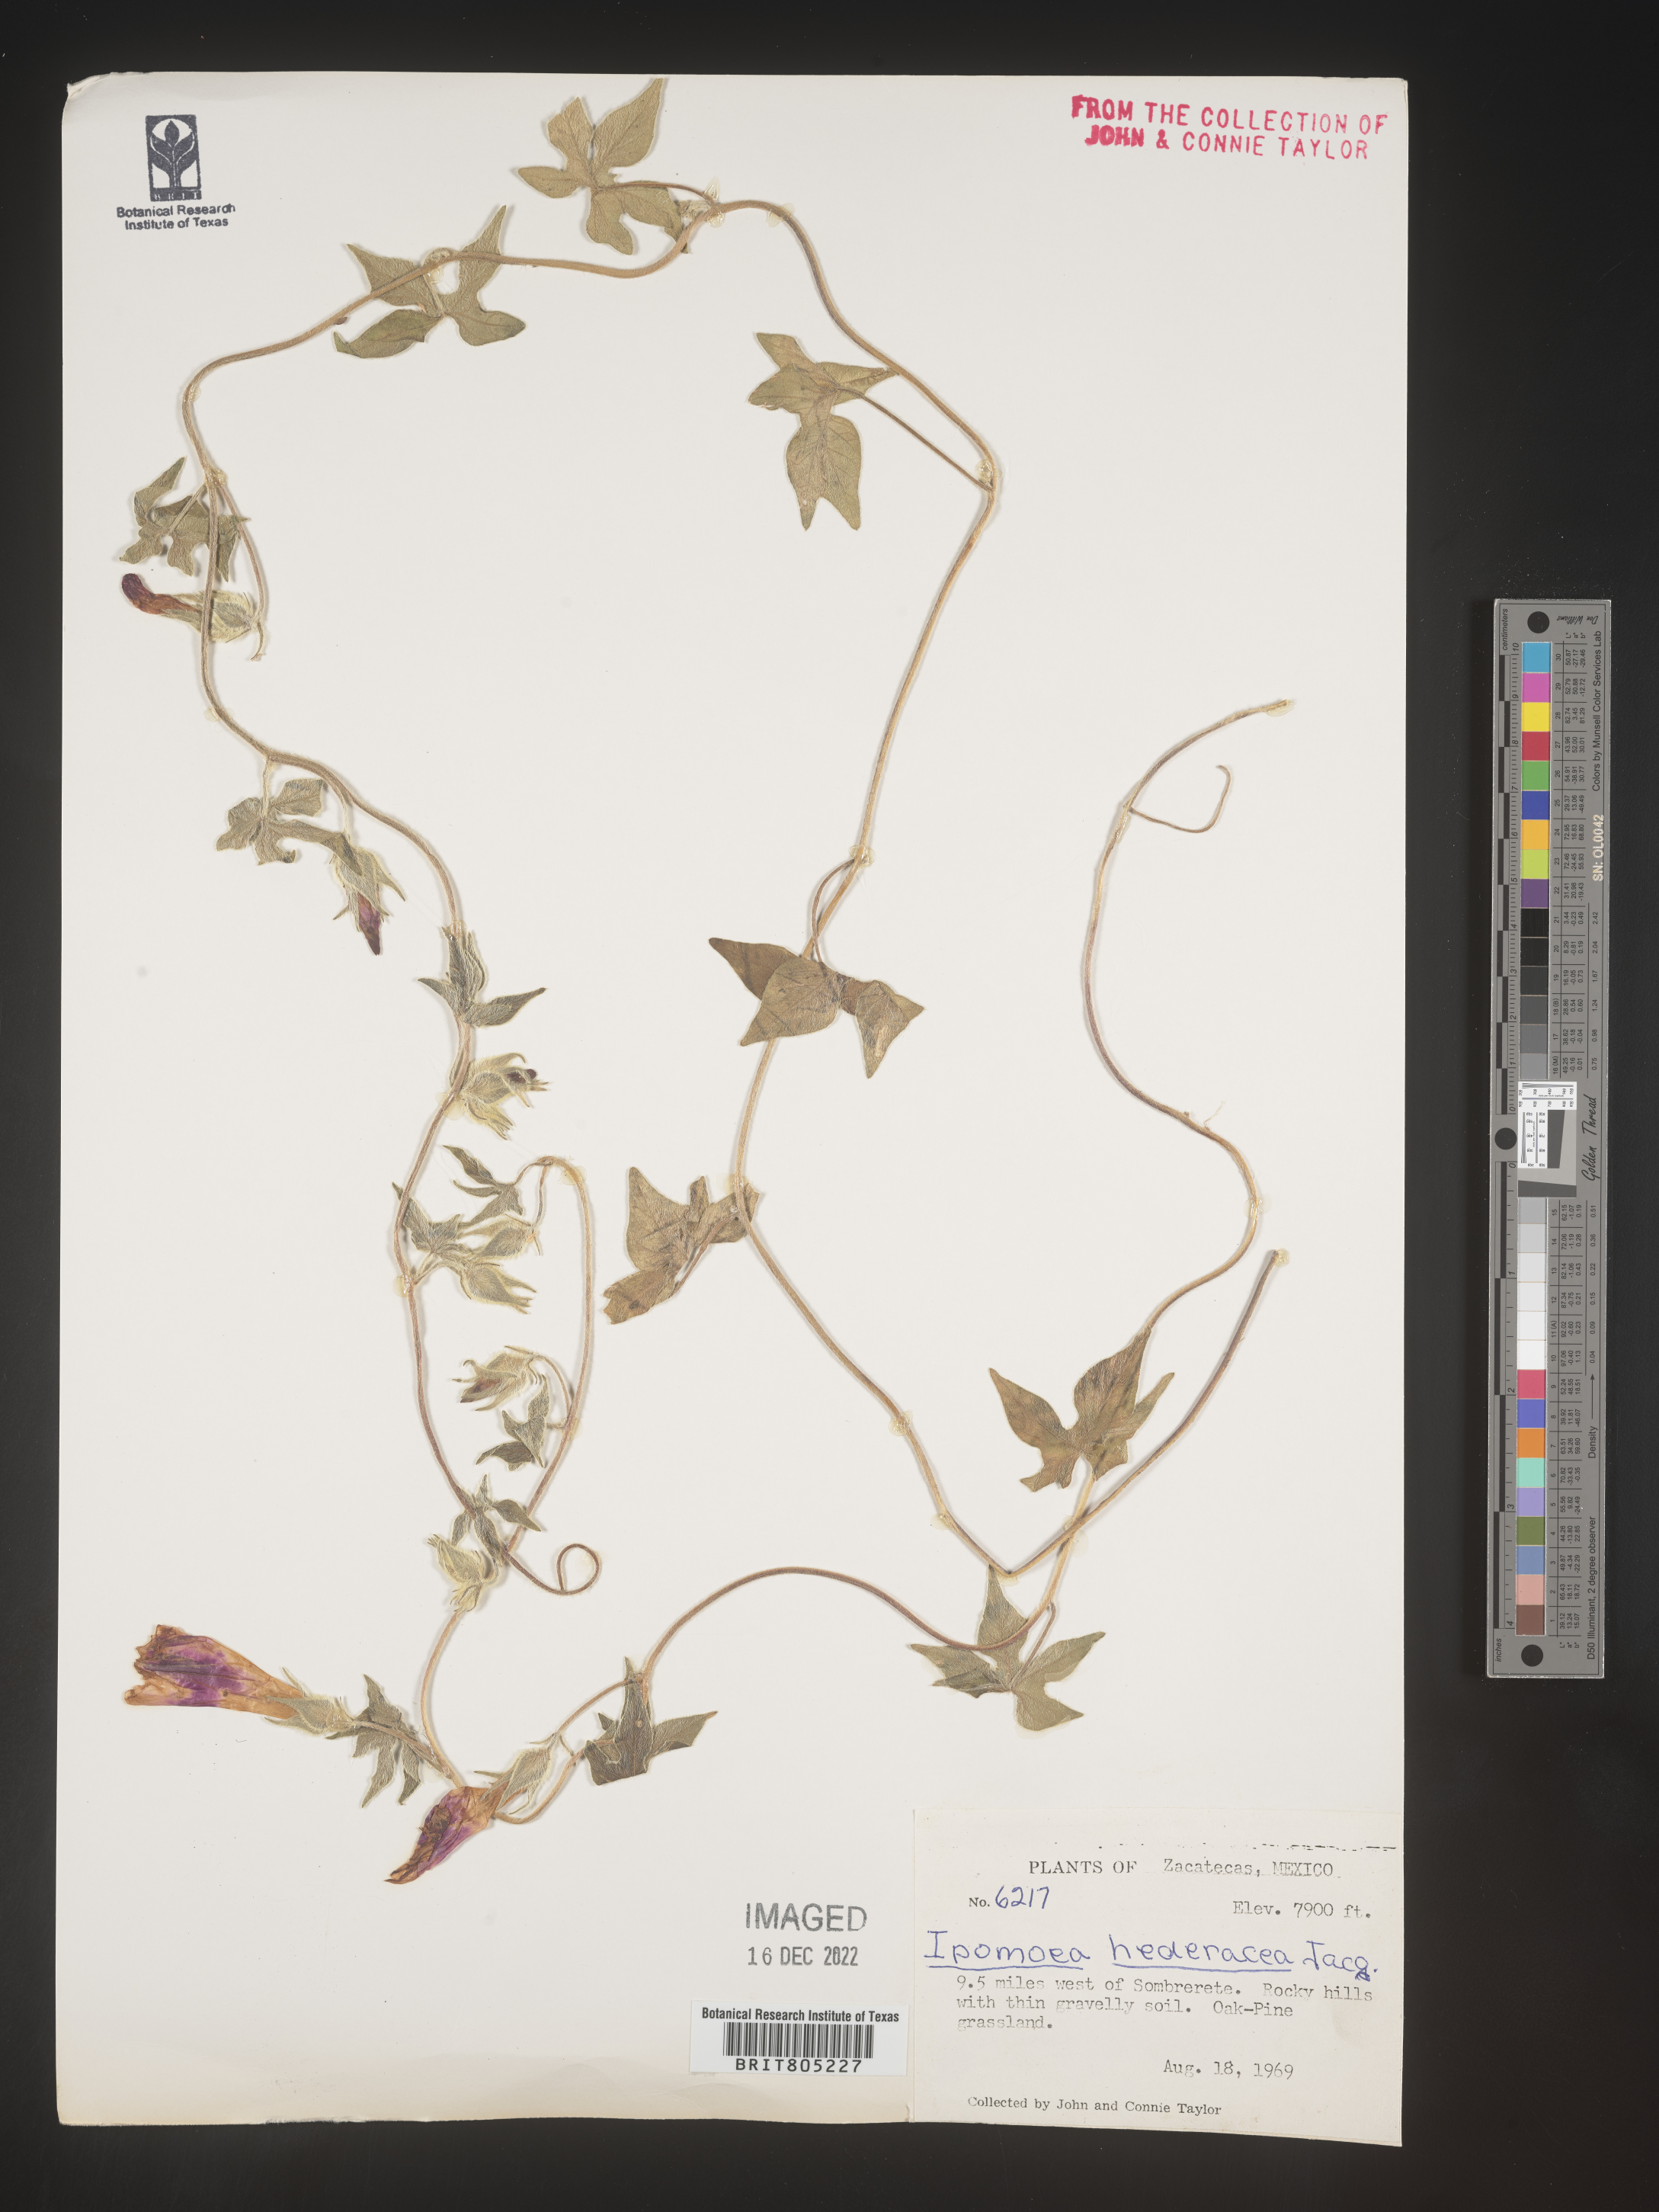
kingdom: Plantae
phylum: Tracheophyta
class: Magnoliopsida
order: Solanales
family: Convolvulaceae
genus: Ipomoea
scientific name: Ipomoea
